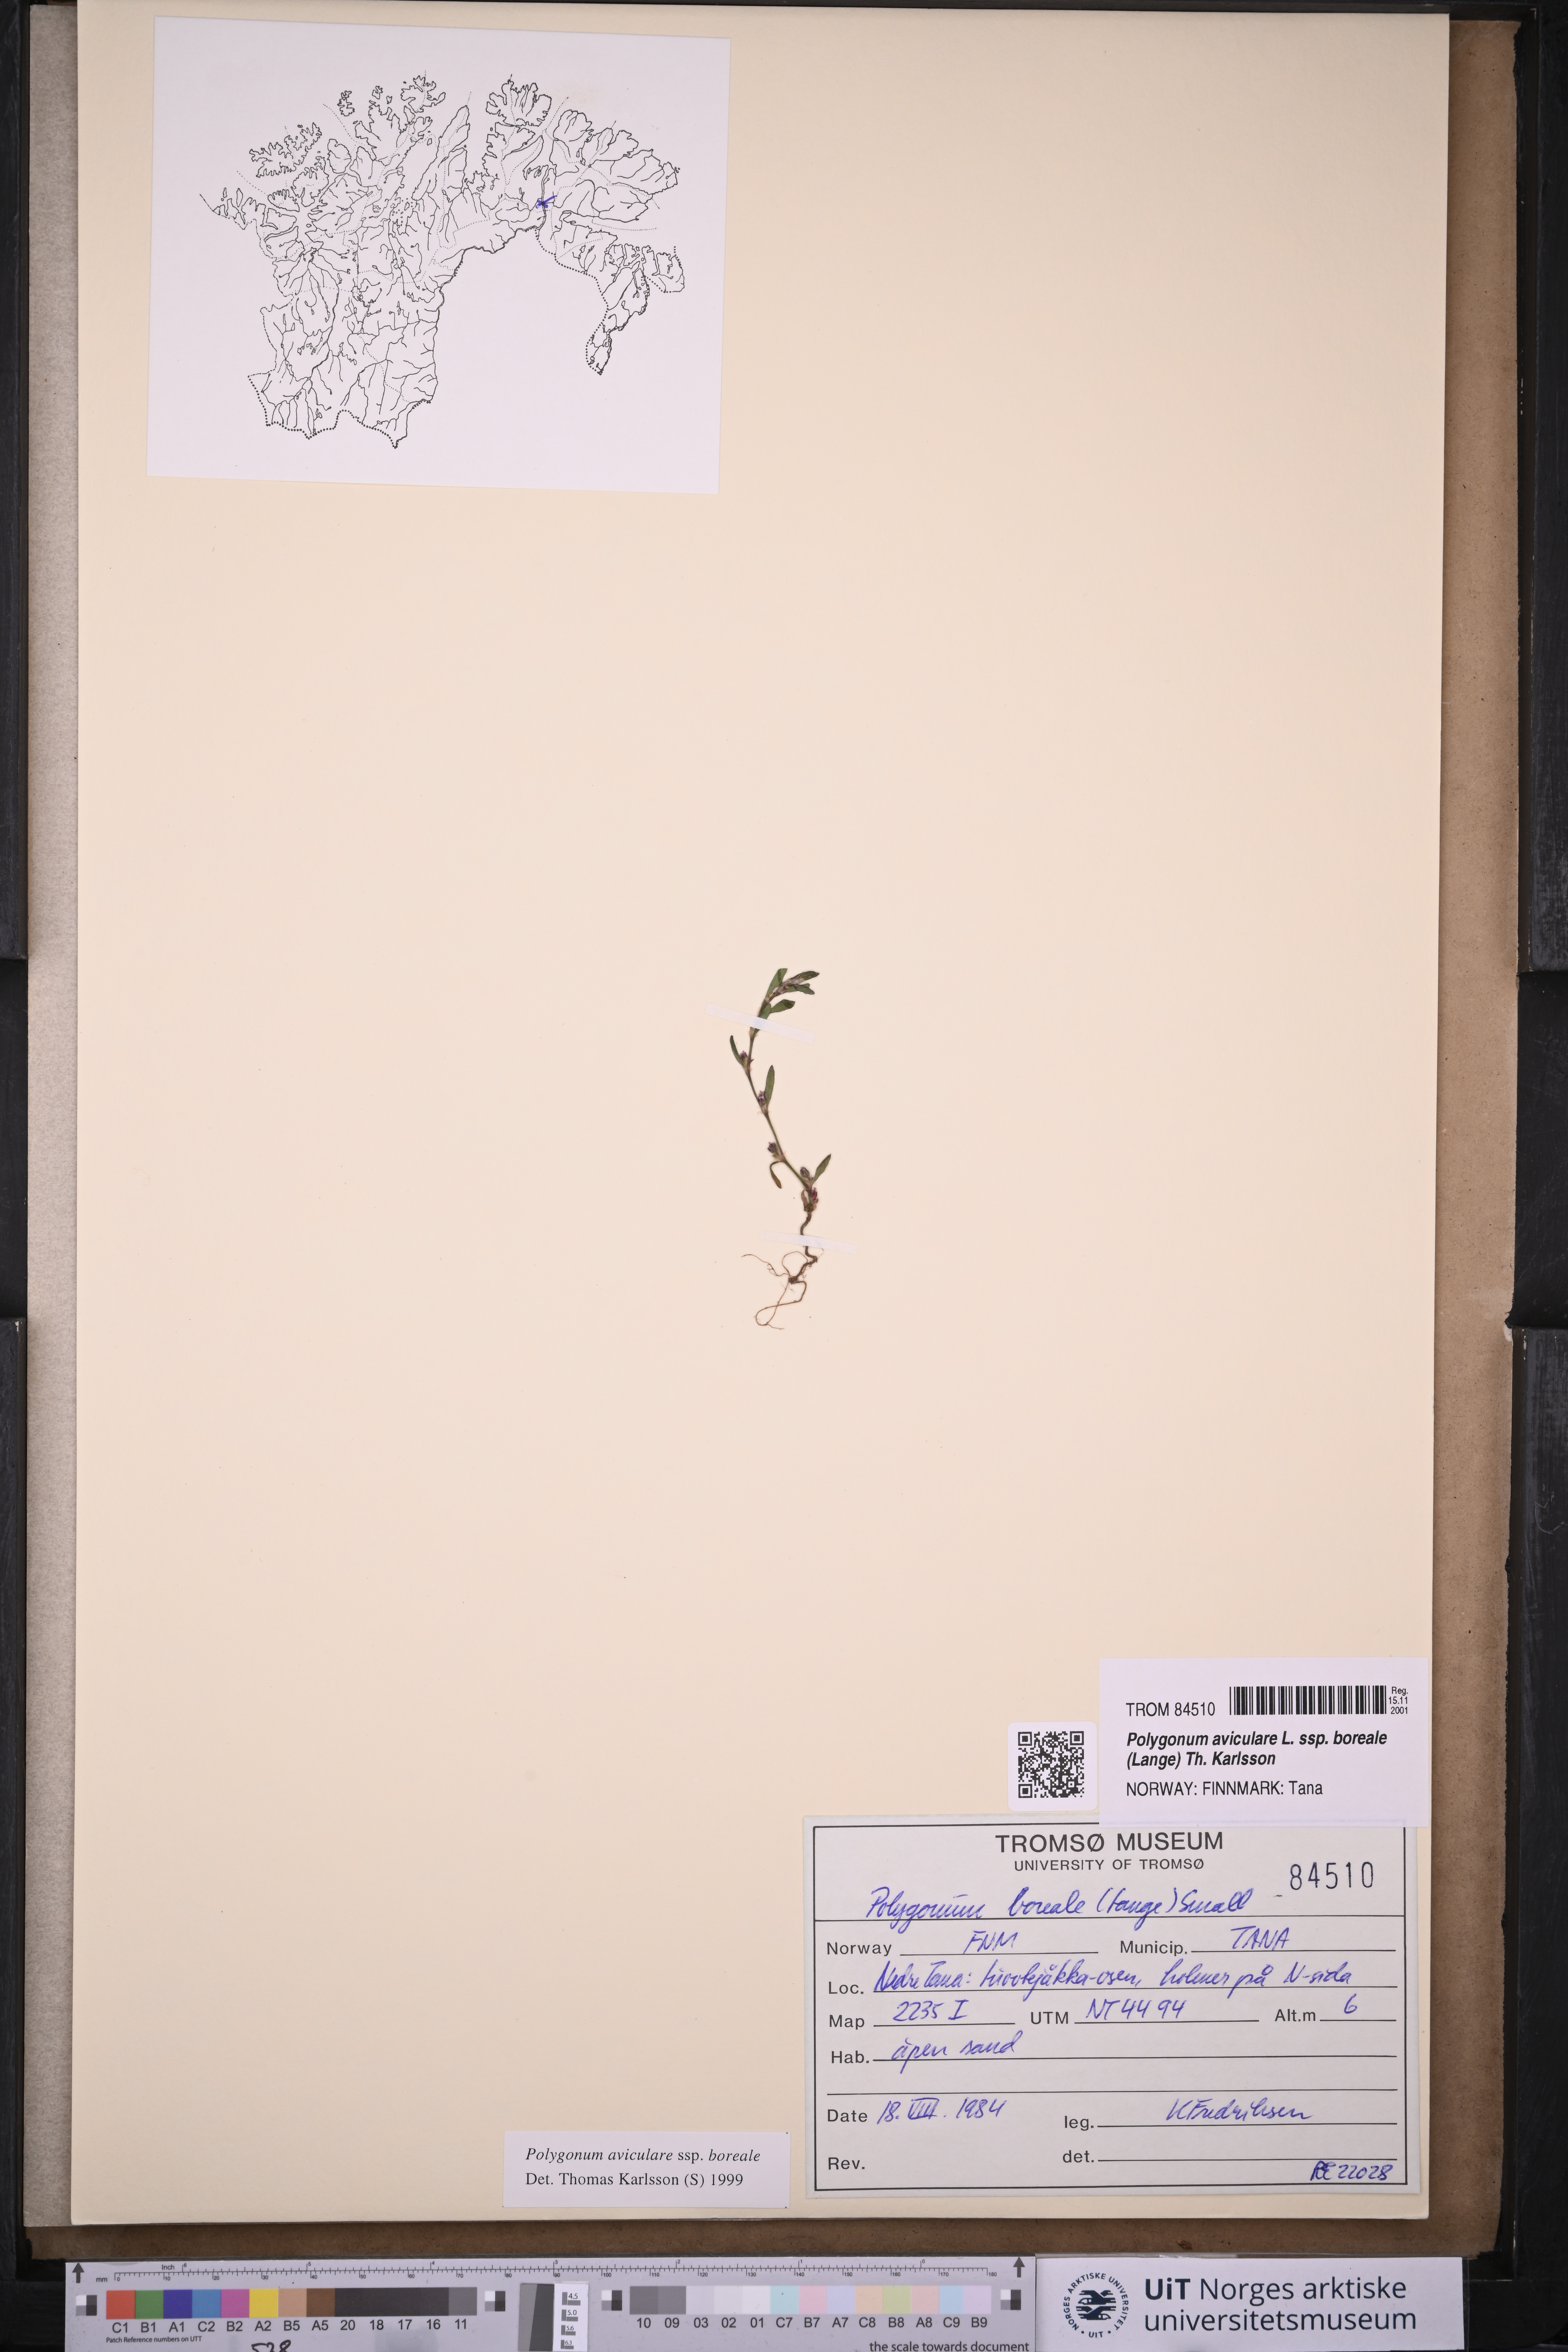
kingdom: Plantae
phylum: Tracheophyta
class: Magnoliopsida
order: Caryophyllales
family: Polygonaceae
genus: Polygonum
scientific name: Polygonum boreale
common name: Northern knotgrass
